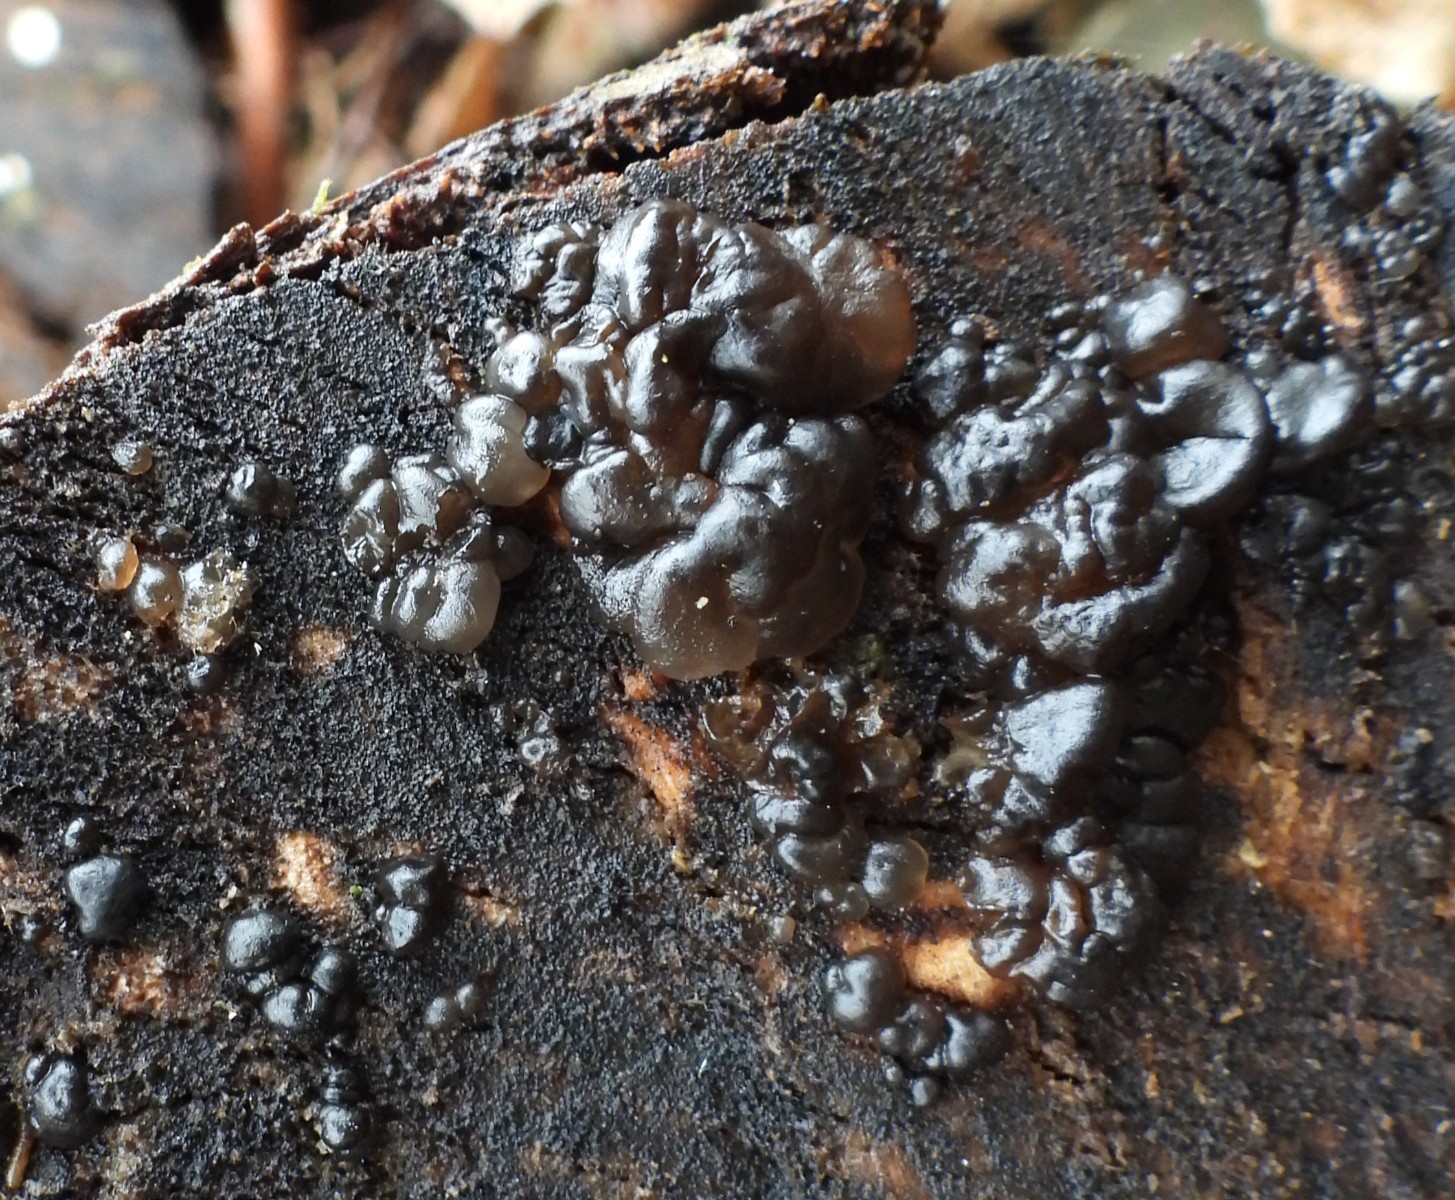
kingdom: Fungi
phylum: Basidiomycota
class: Agaricomycetes
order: Auriculariales
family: Auriculariaceae
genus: Exidia
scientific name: Exidia nigricans
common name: almindelig bævretop
